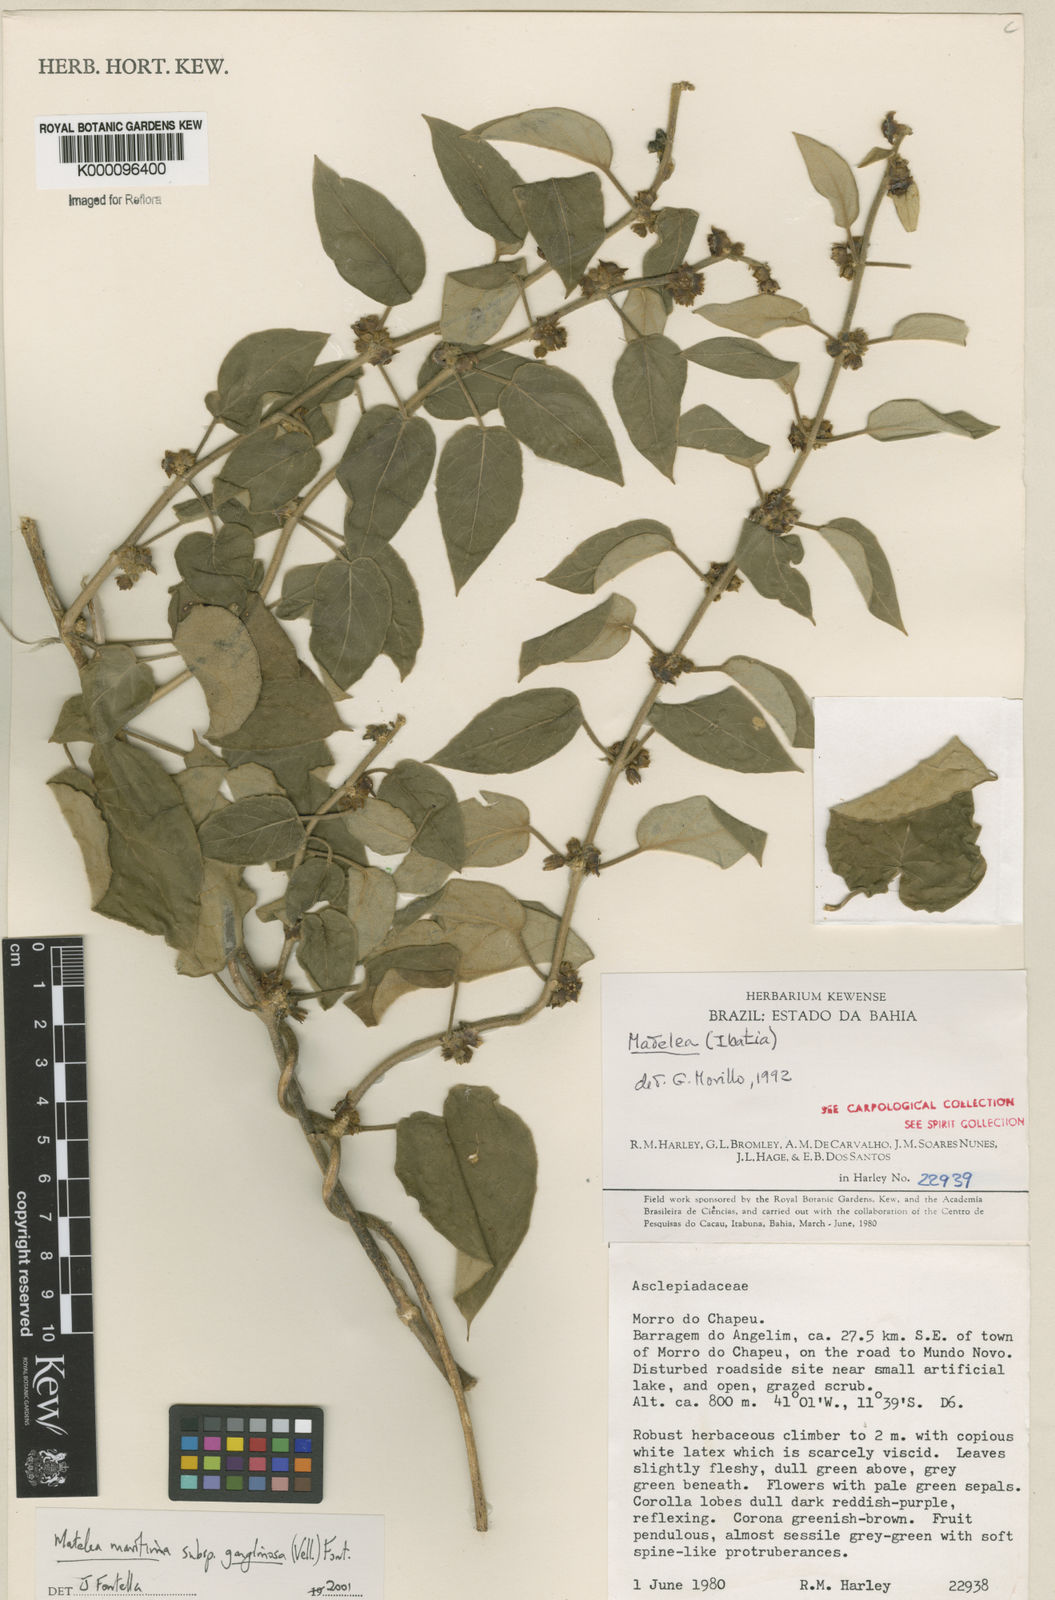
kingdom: Plantae
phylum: Tracheophyta
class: Magnoliopsida
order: Gentianales
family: Apocynaceae
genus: Ibatia
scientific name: Ibatia ganglinosa
